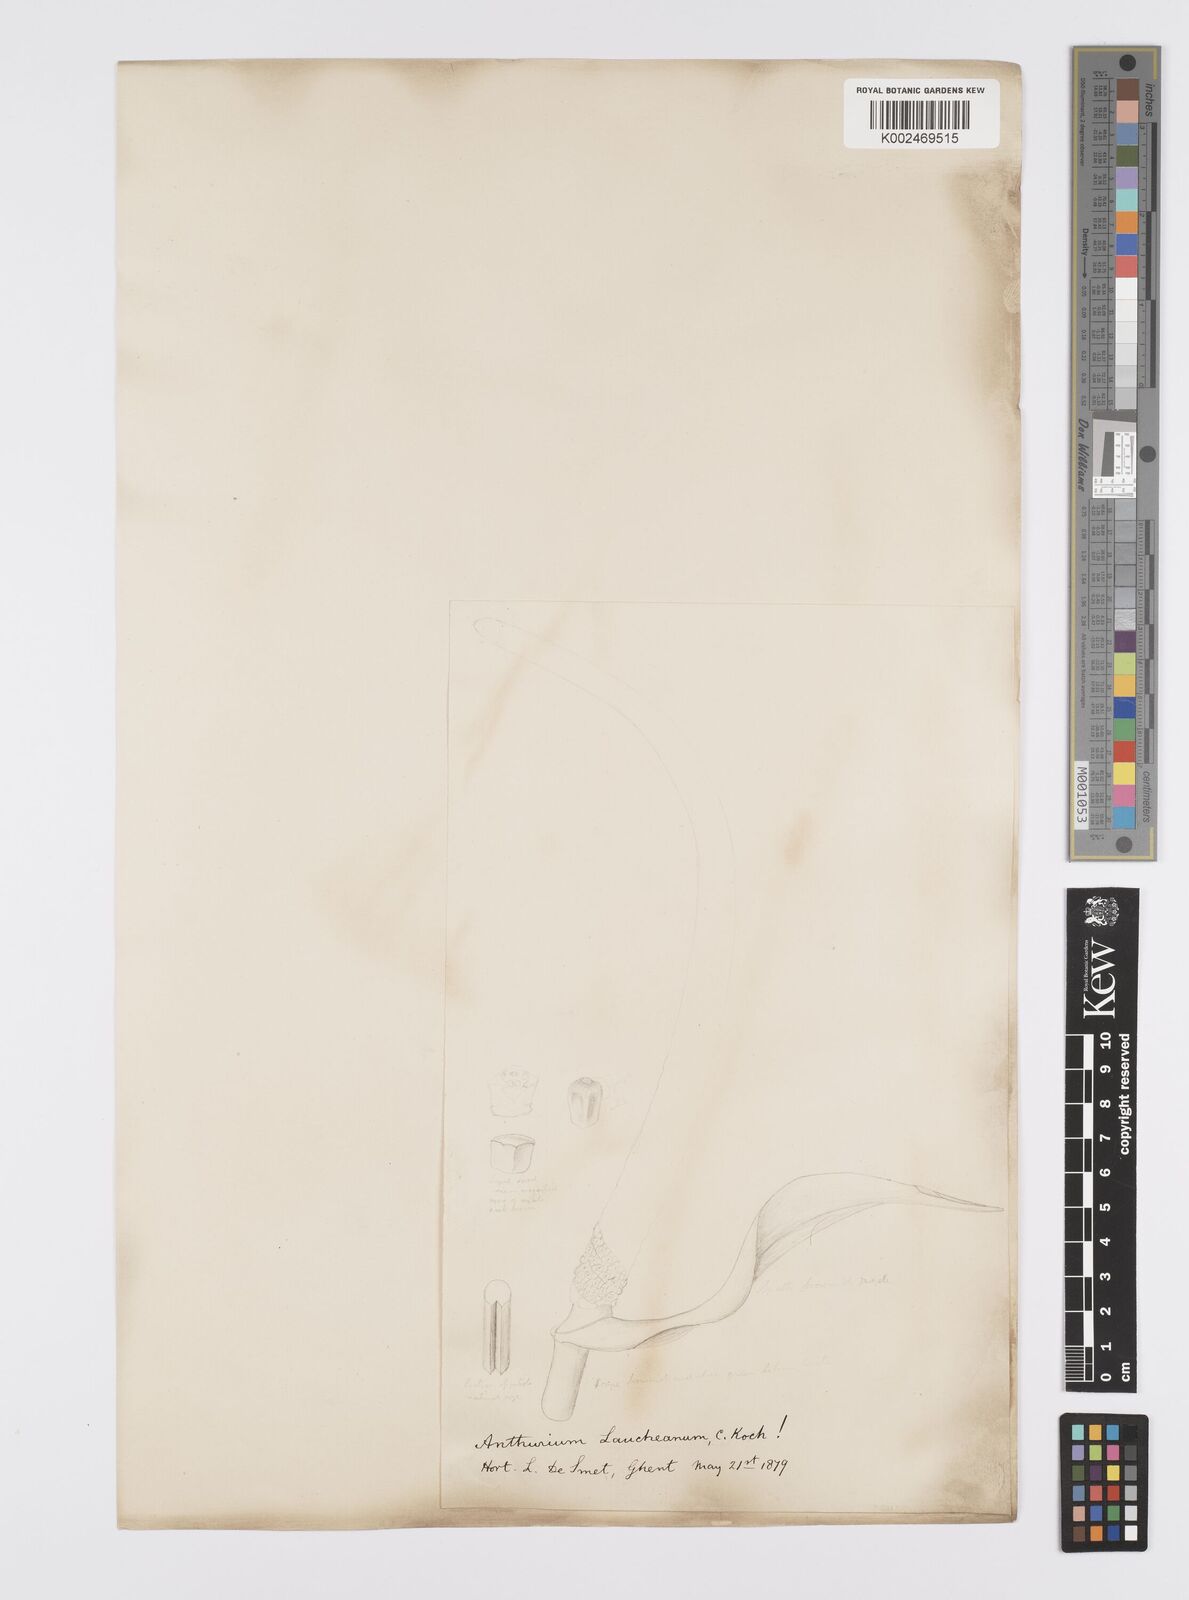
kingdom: Plantae
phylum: Tracheophyta
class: Liliopsida
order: Alismatales
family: Araceae
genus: Anthurium
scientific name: Anthurium augustinum
